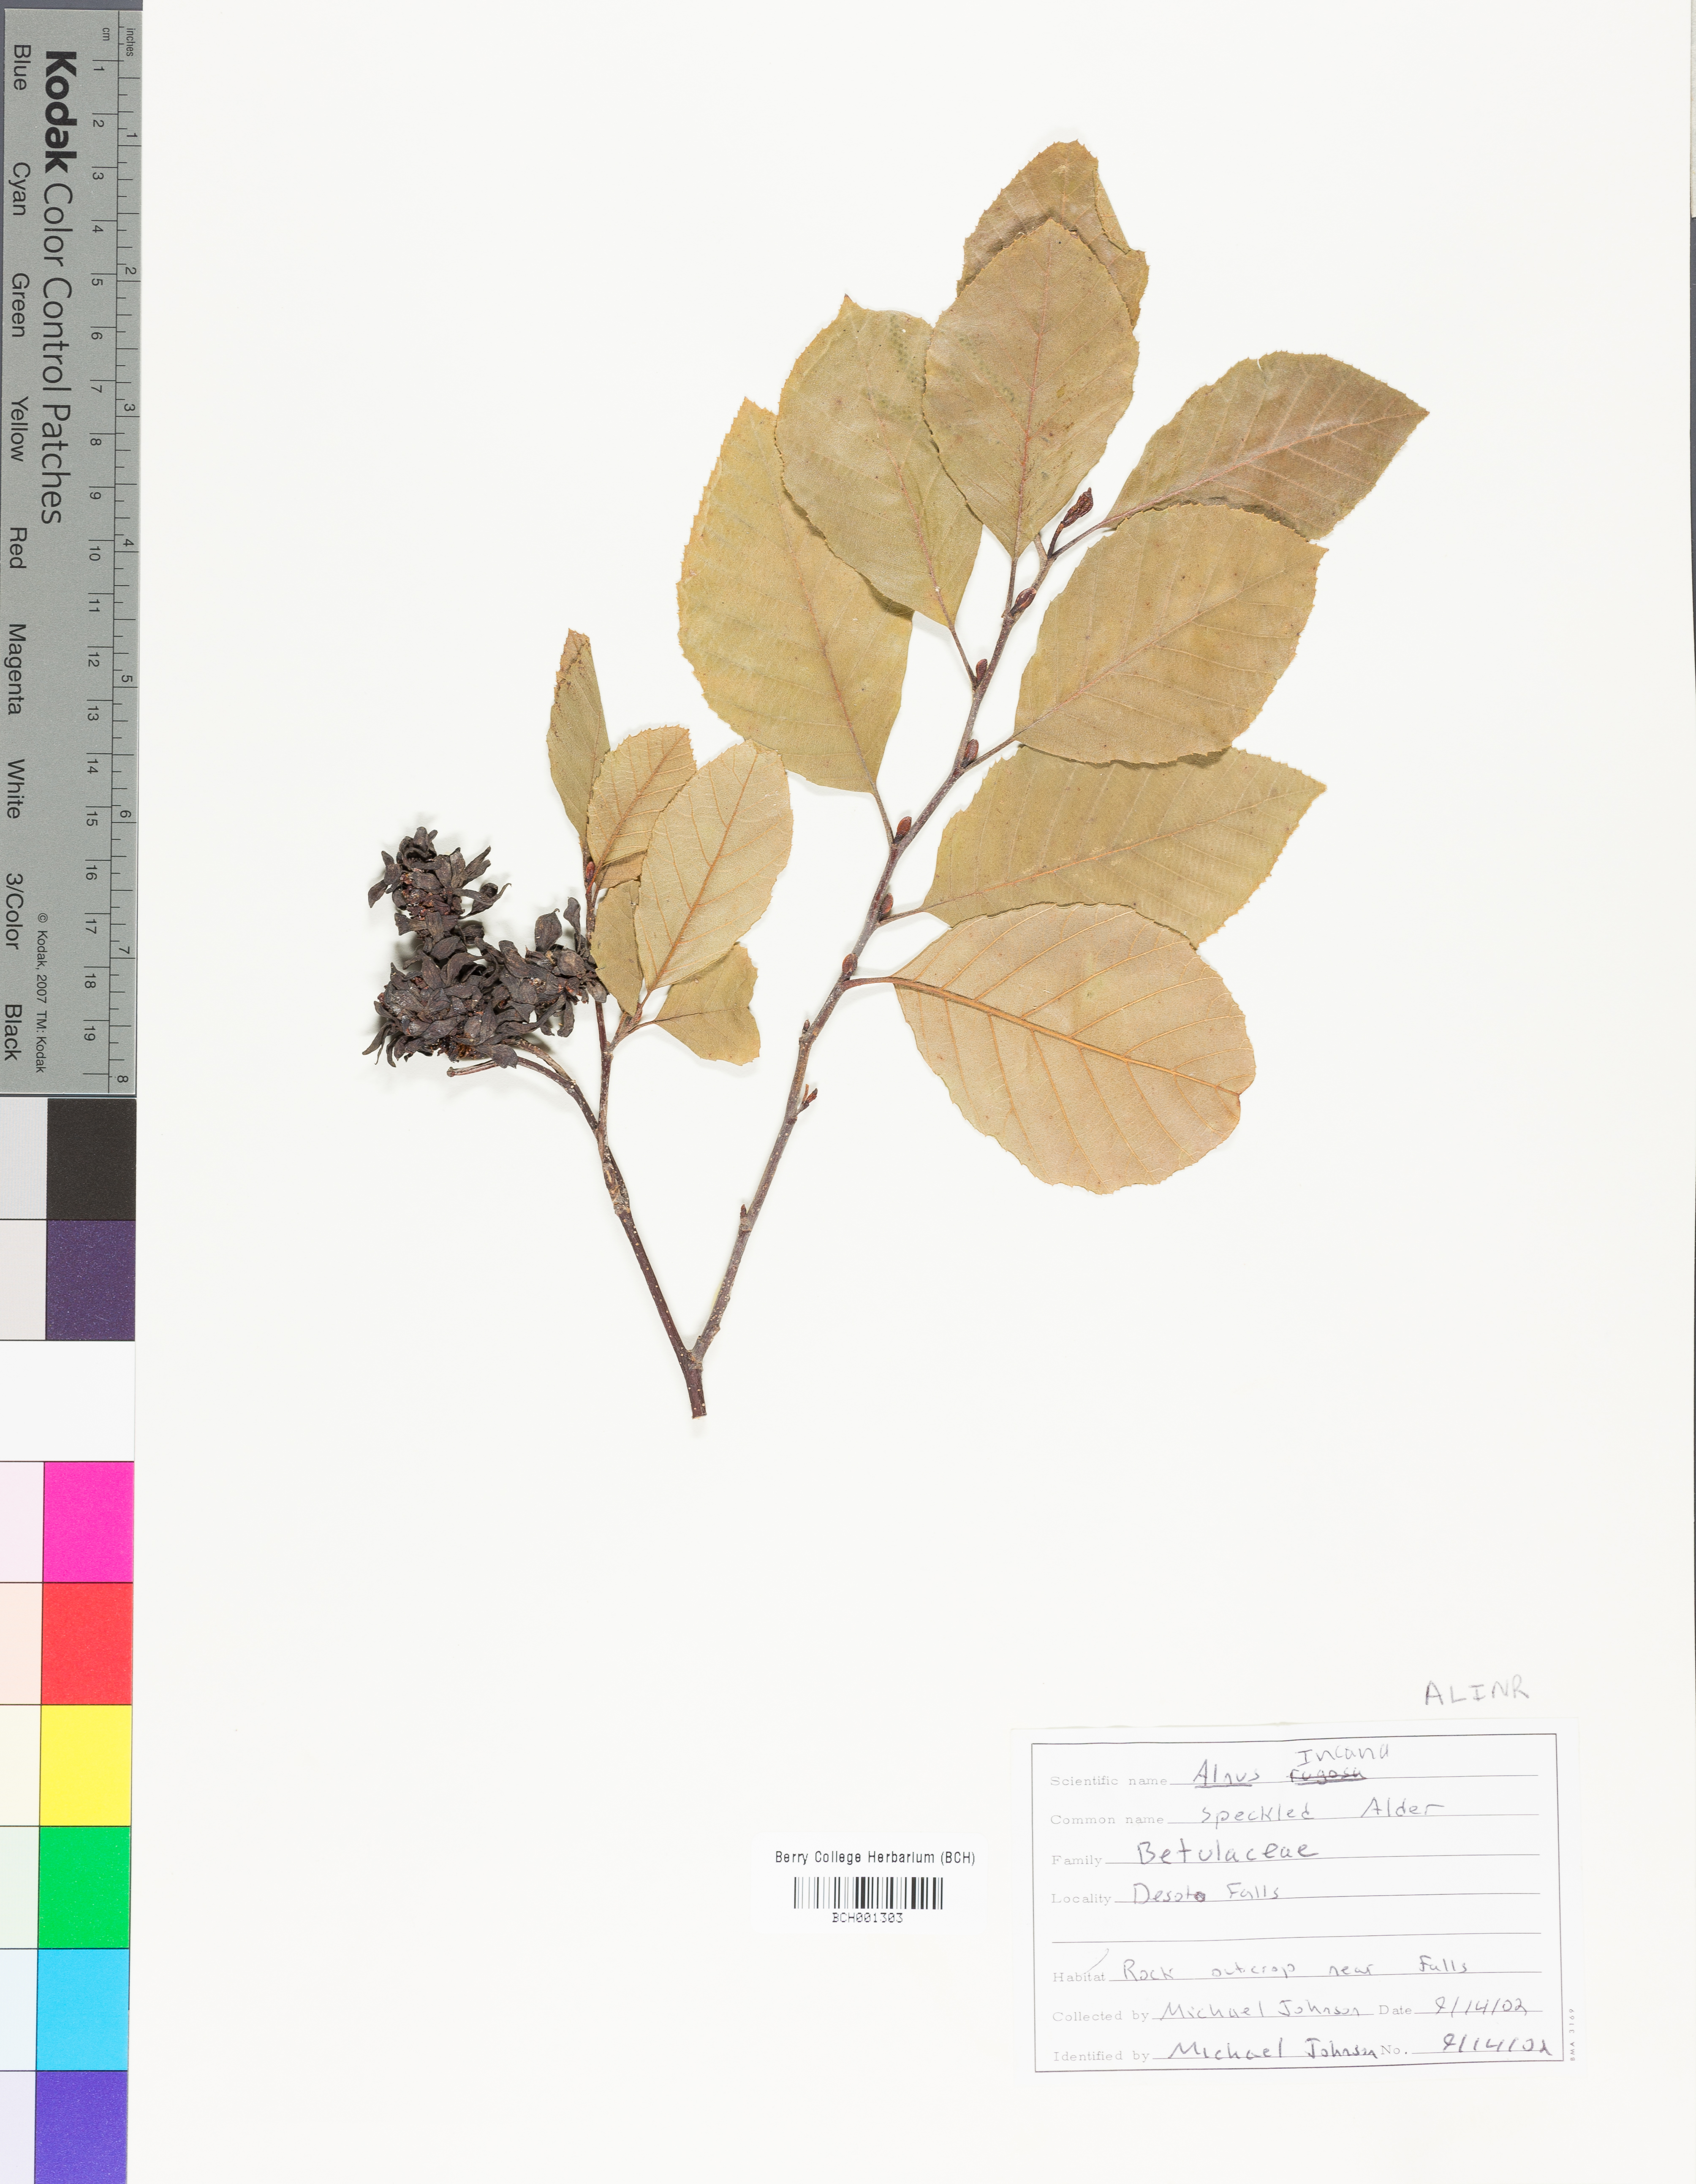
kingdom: Plantae
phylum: Tracheophyta
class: Magnoliopsida
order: Fagales
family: Betulaceae
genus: Alnus
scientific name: Alnus incana
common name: Grey alder
